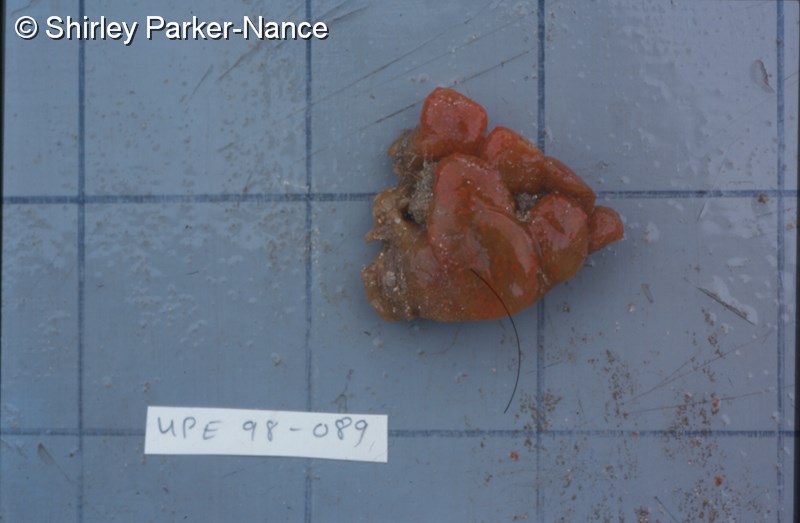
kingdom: Animalia
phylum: Chordata
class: Ascidiacea
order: Aplousobranchia
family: Pseudodistomidae
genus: Pseudodistoma
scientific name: Pseudodistoma
